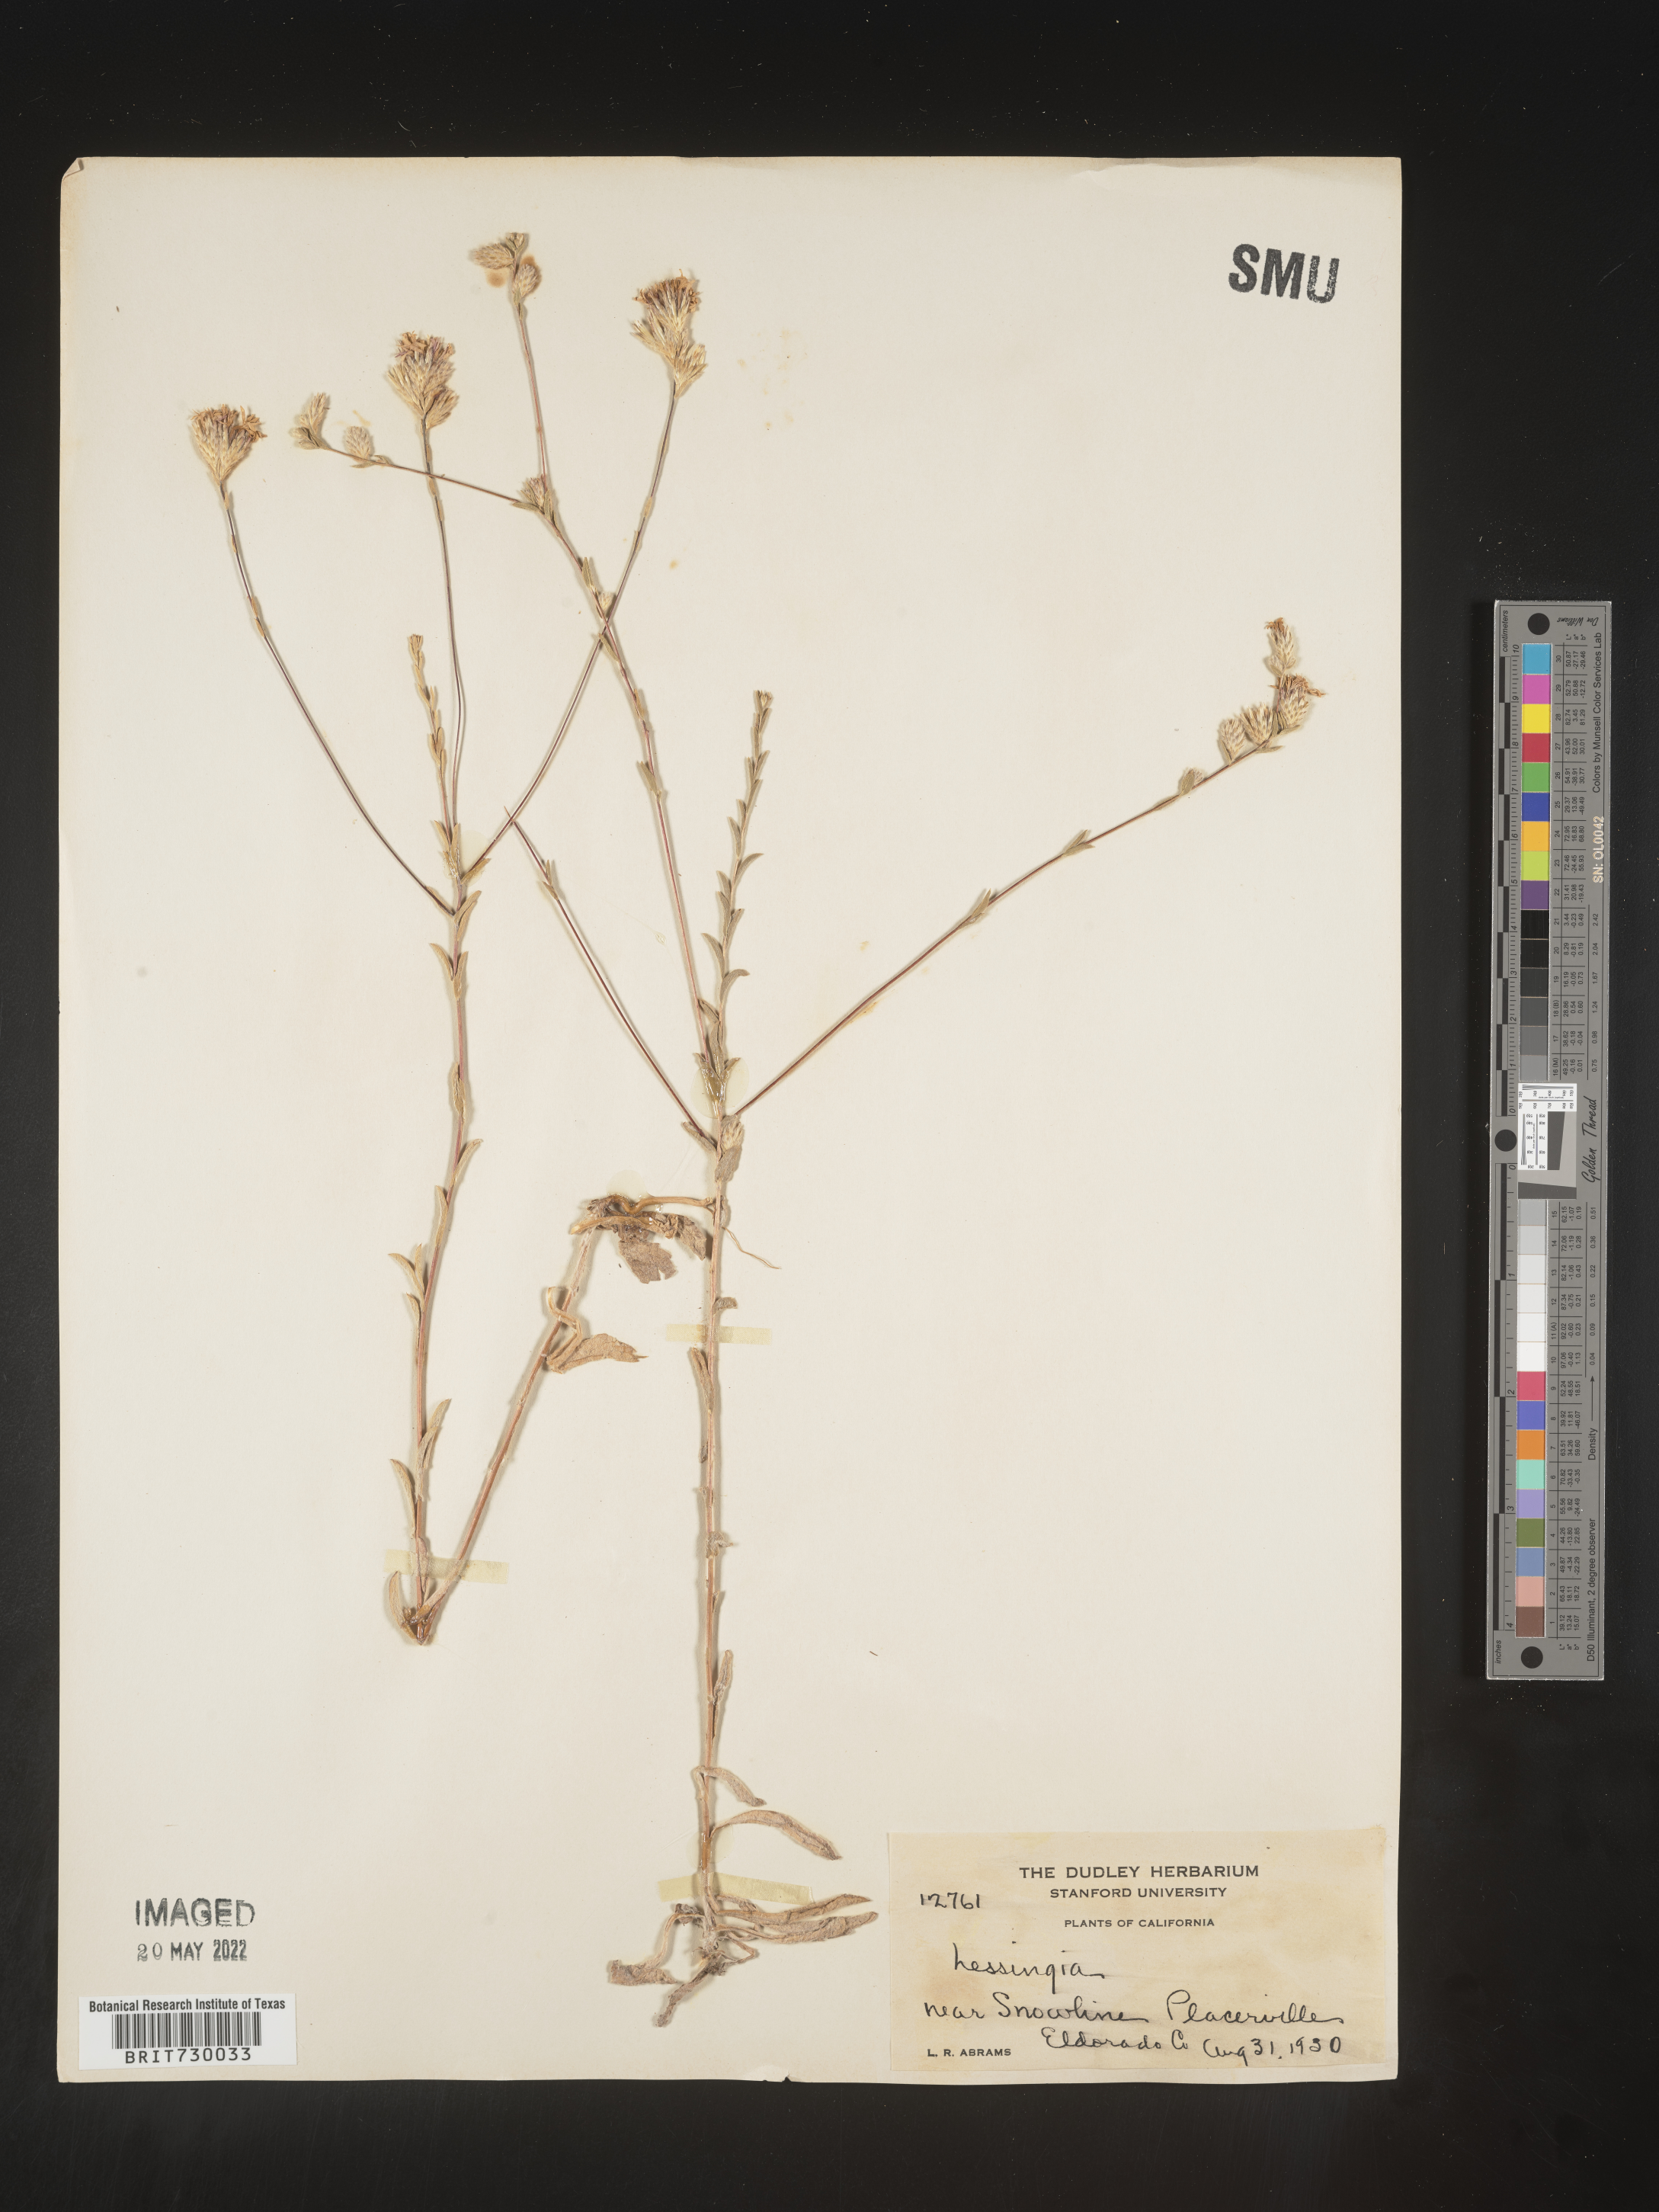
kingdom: Plantae
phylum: Tracheophyta
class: Magnoliopsida
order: Asterales
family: Asteraceae
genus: Lessingia
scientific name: Lessingia
